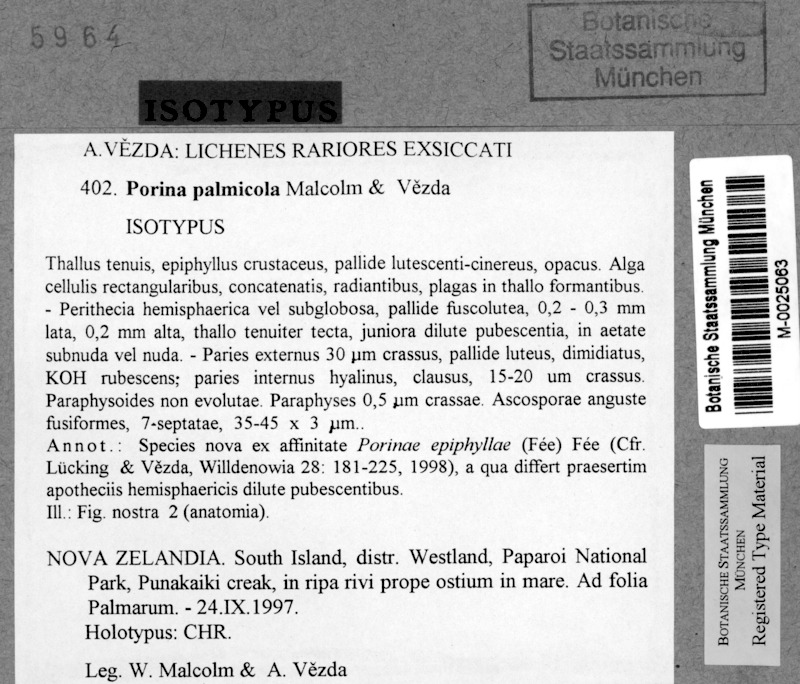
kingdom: Fungi
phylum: Ascomycota
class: Lecanoromycetes
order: Pertusariales
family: Pertusariaceae
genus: Porina
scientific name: Porina palmicola
